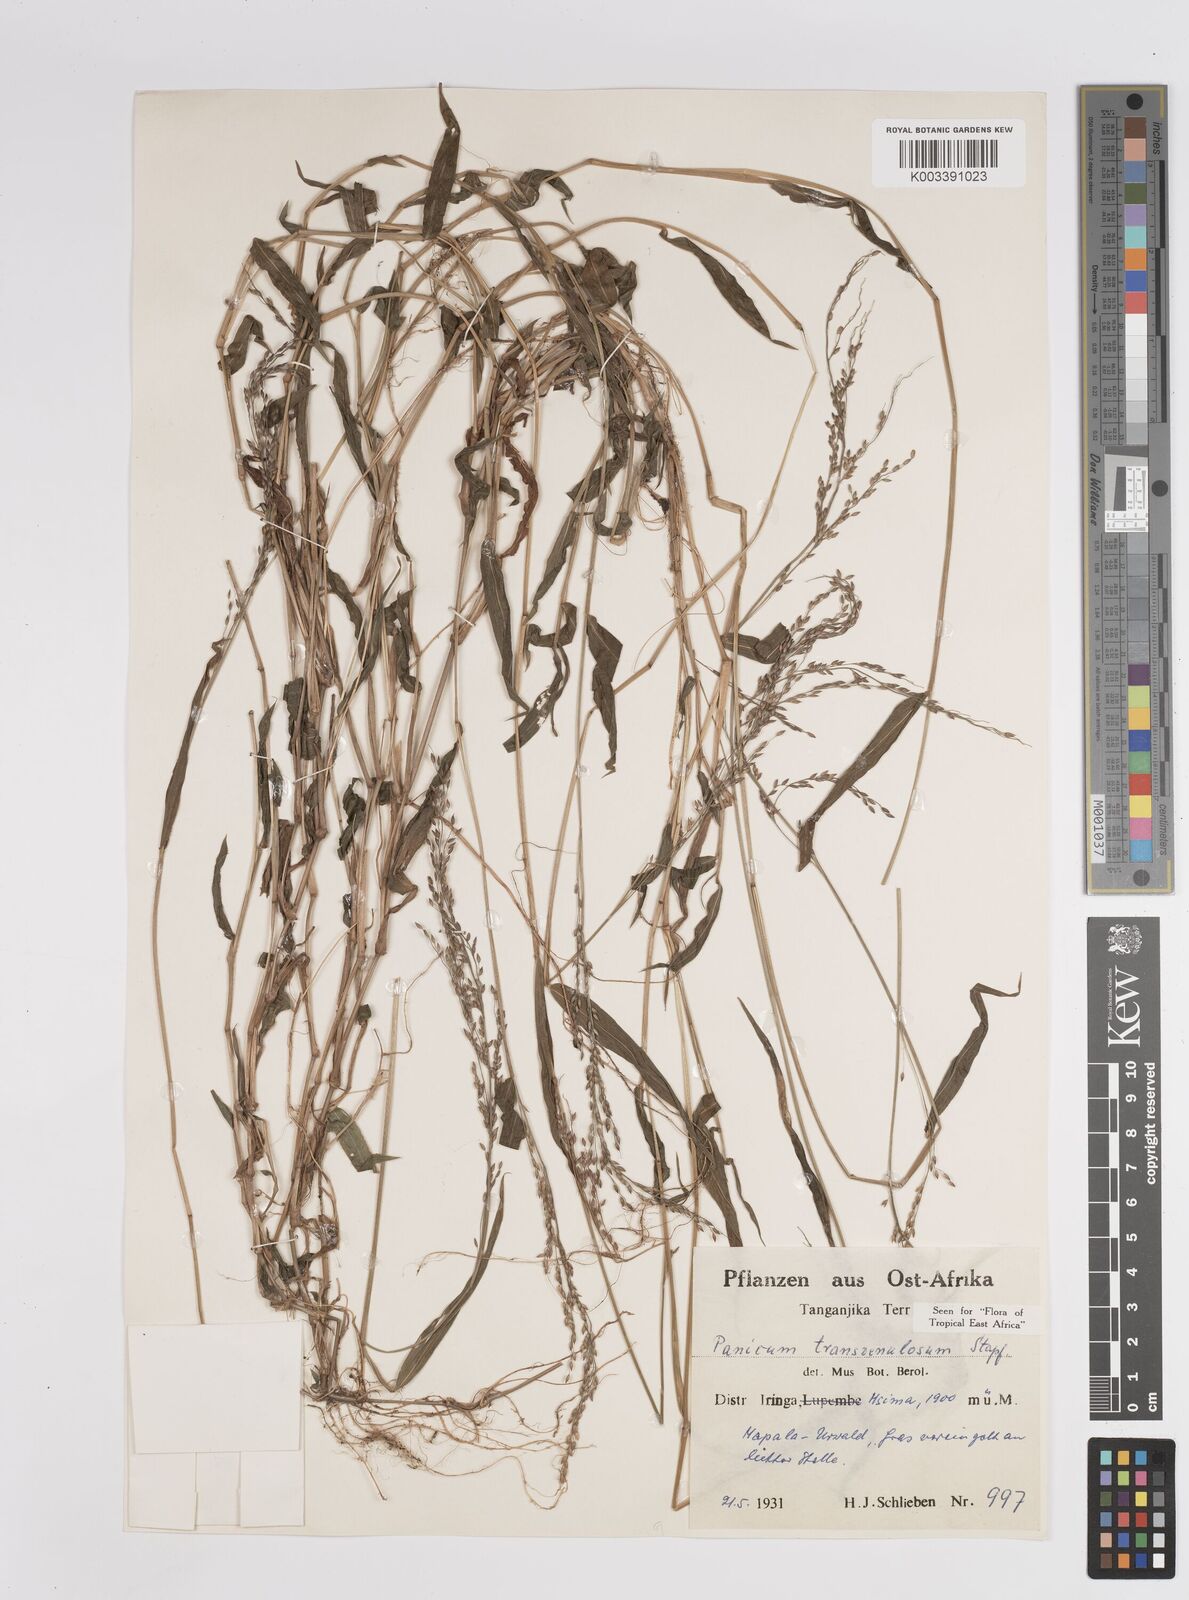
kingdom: Plantae
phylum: Tracheophyta
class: Liliopsida
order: Poales
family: Poaceae
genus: Panicum
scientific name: Panicum monticola
